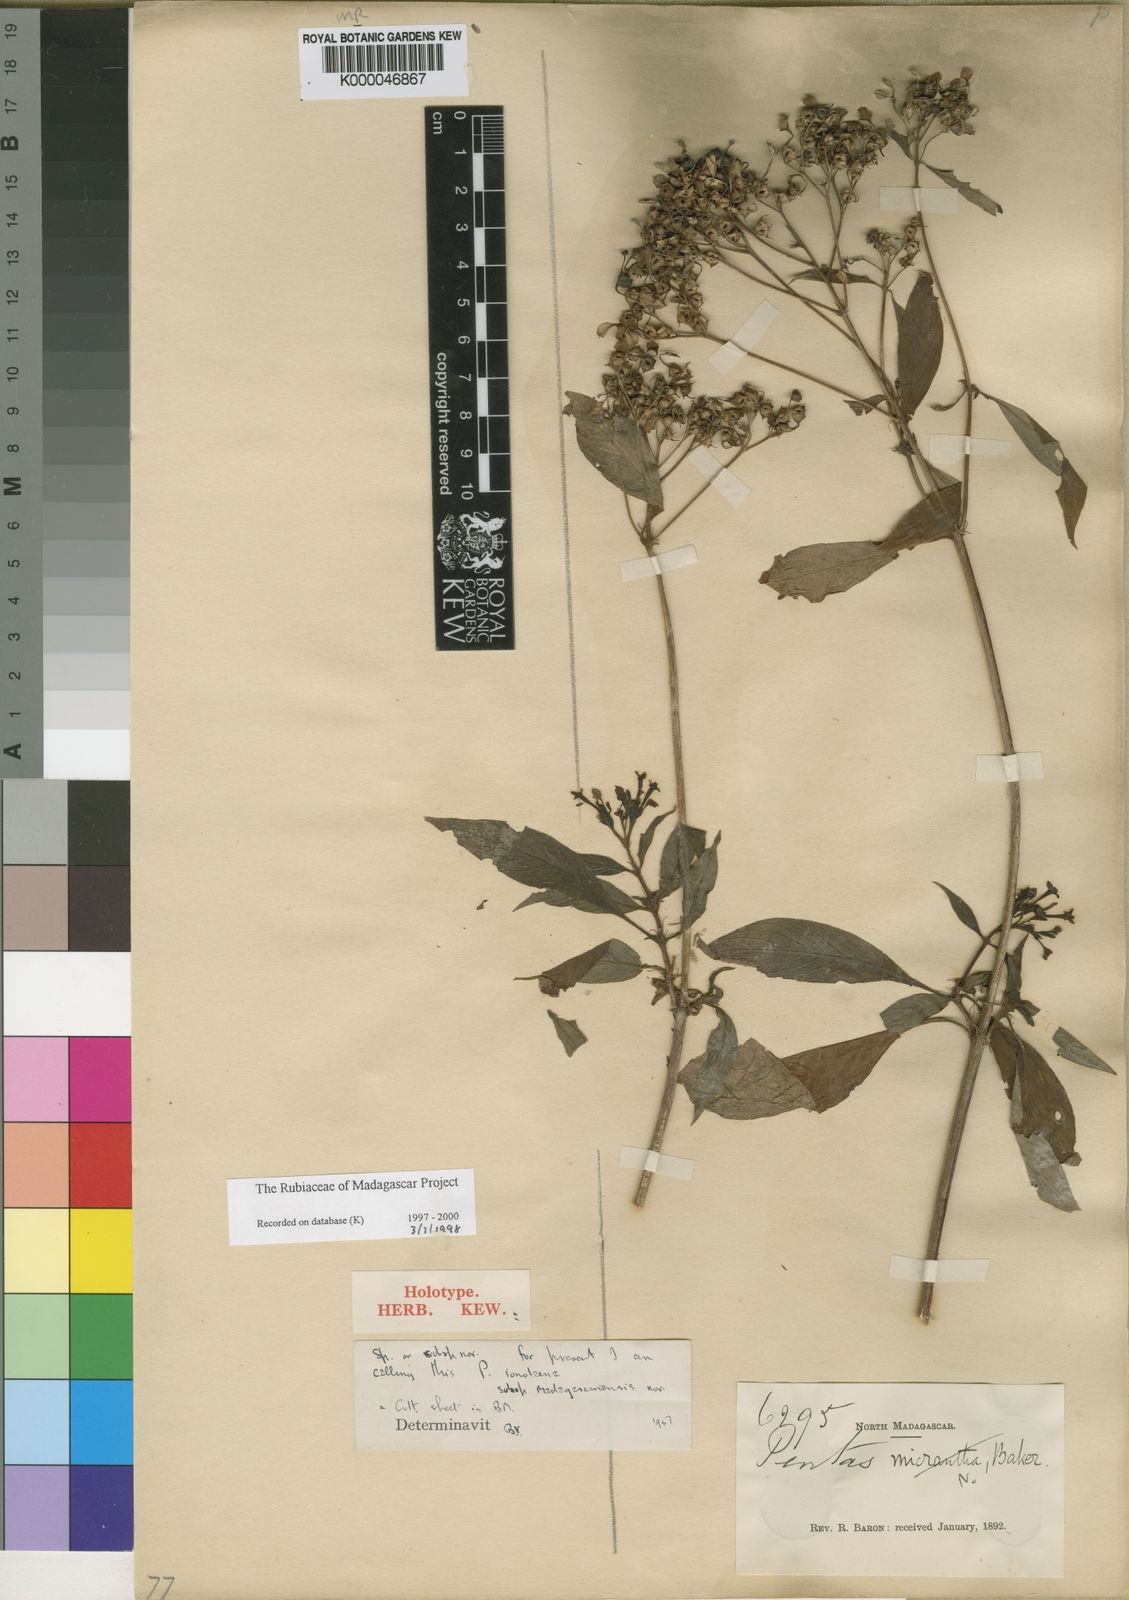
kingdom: Plantae
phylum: Tracheophyta
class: Magnoliopsida
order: Gentianales
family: Rubiaceae
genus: Phyllopentas
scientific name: Phyllopentas
